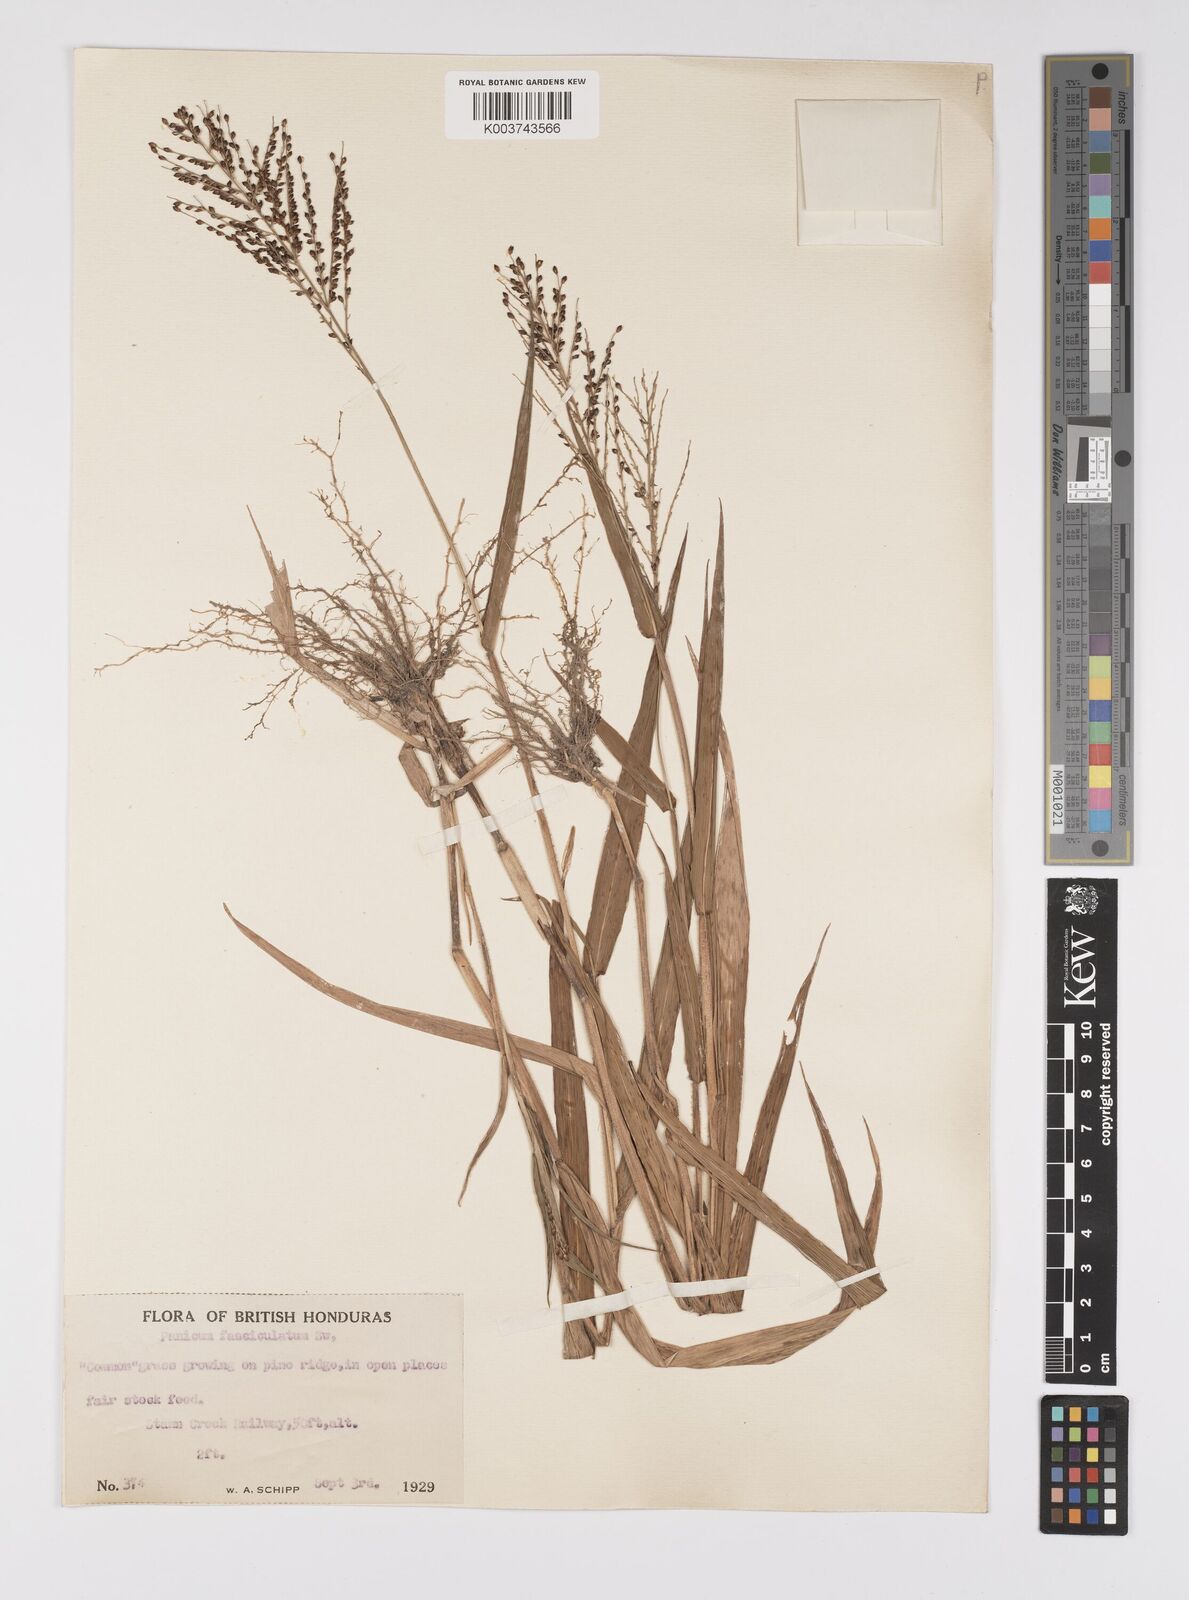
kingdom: Plantae
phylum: Tracheophyta
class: Liliopsida
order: Poales
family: Poaceae
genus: Urochloa
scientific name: Urochloa fusca
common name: Browntop signal grass
